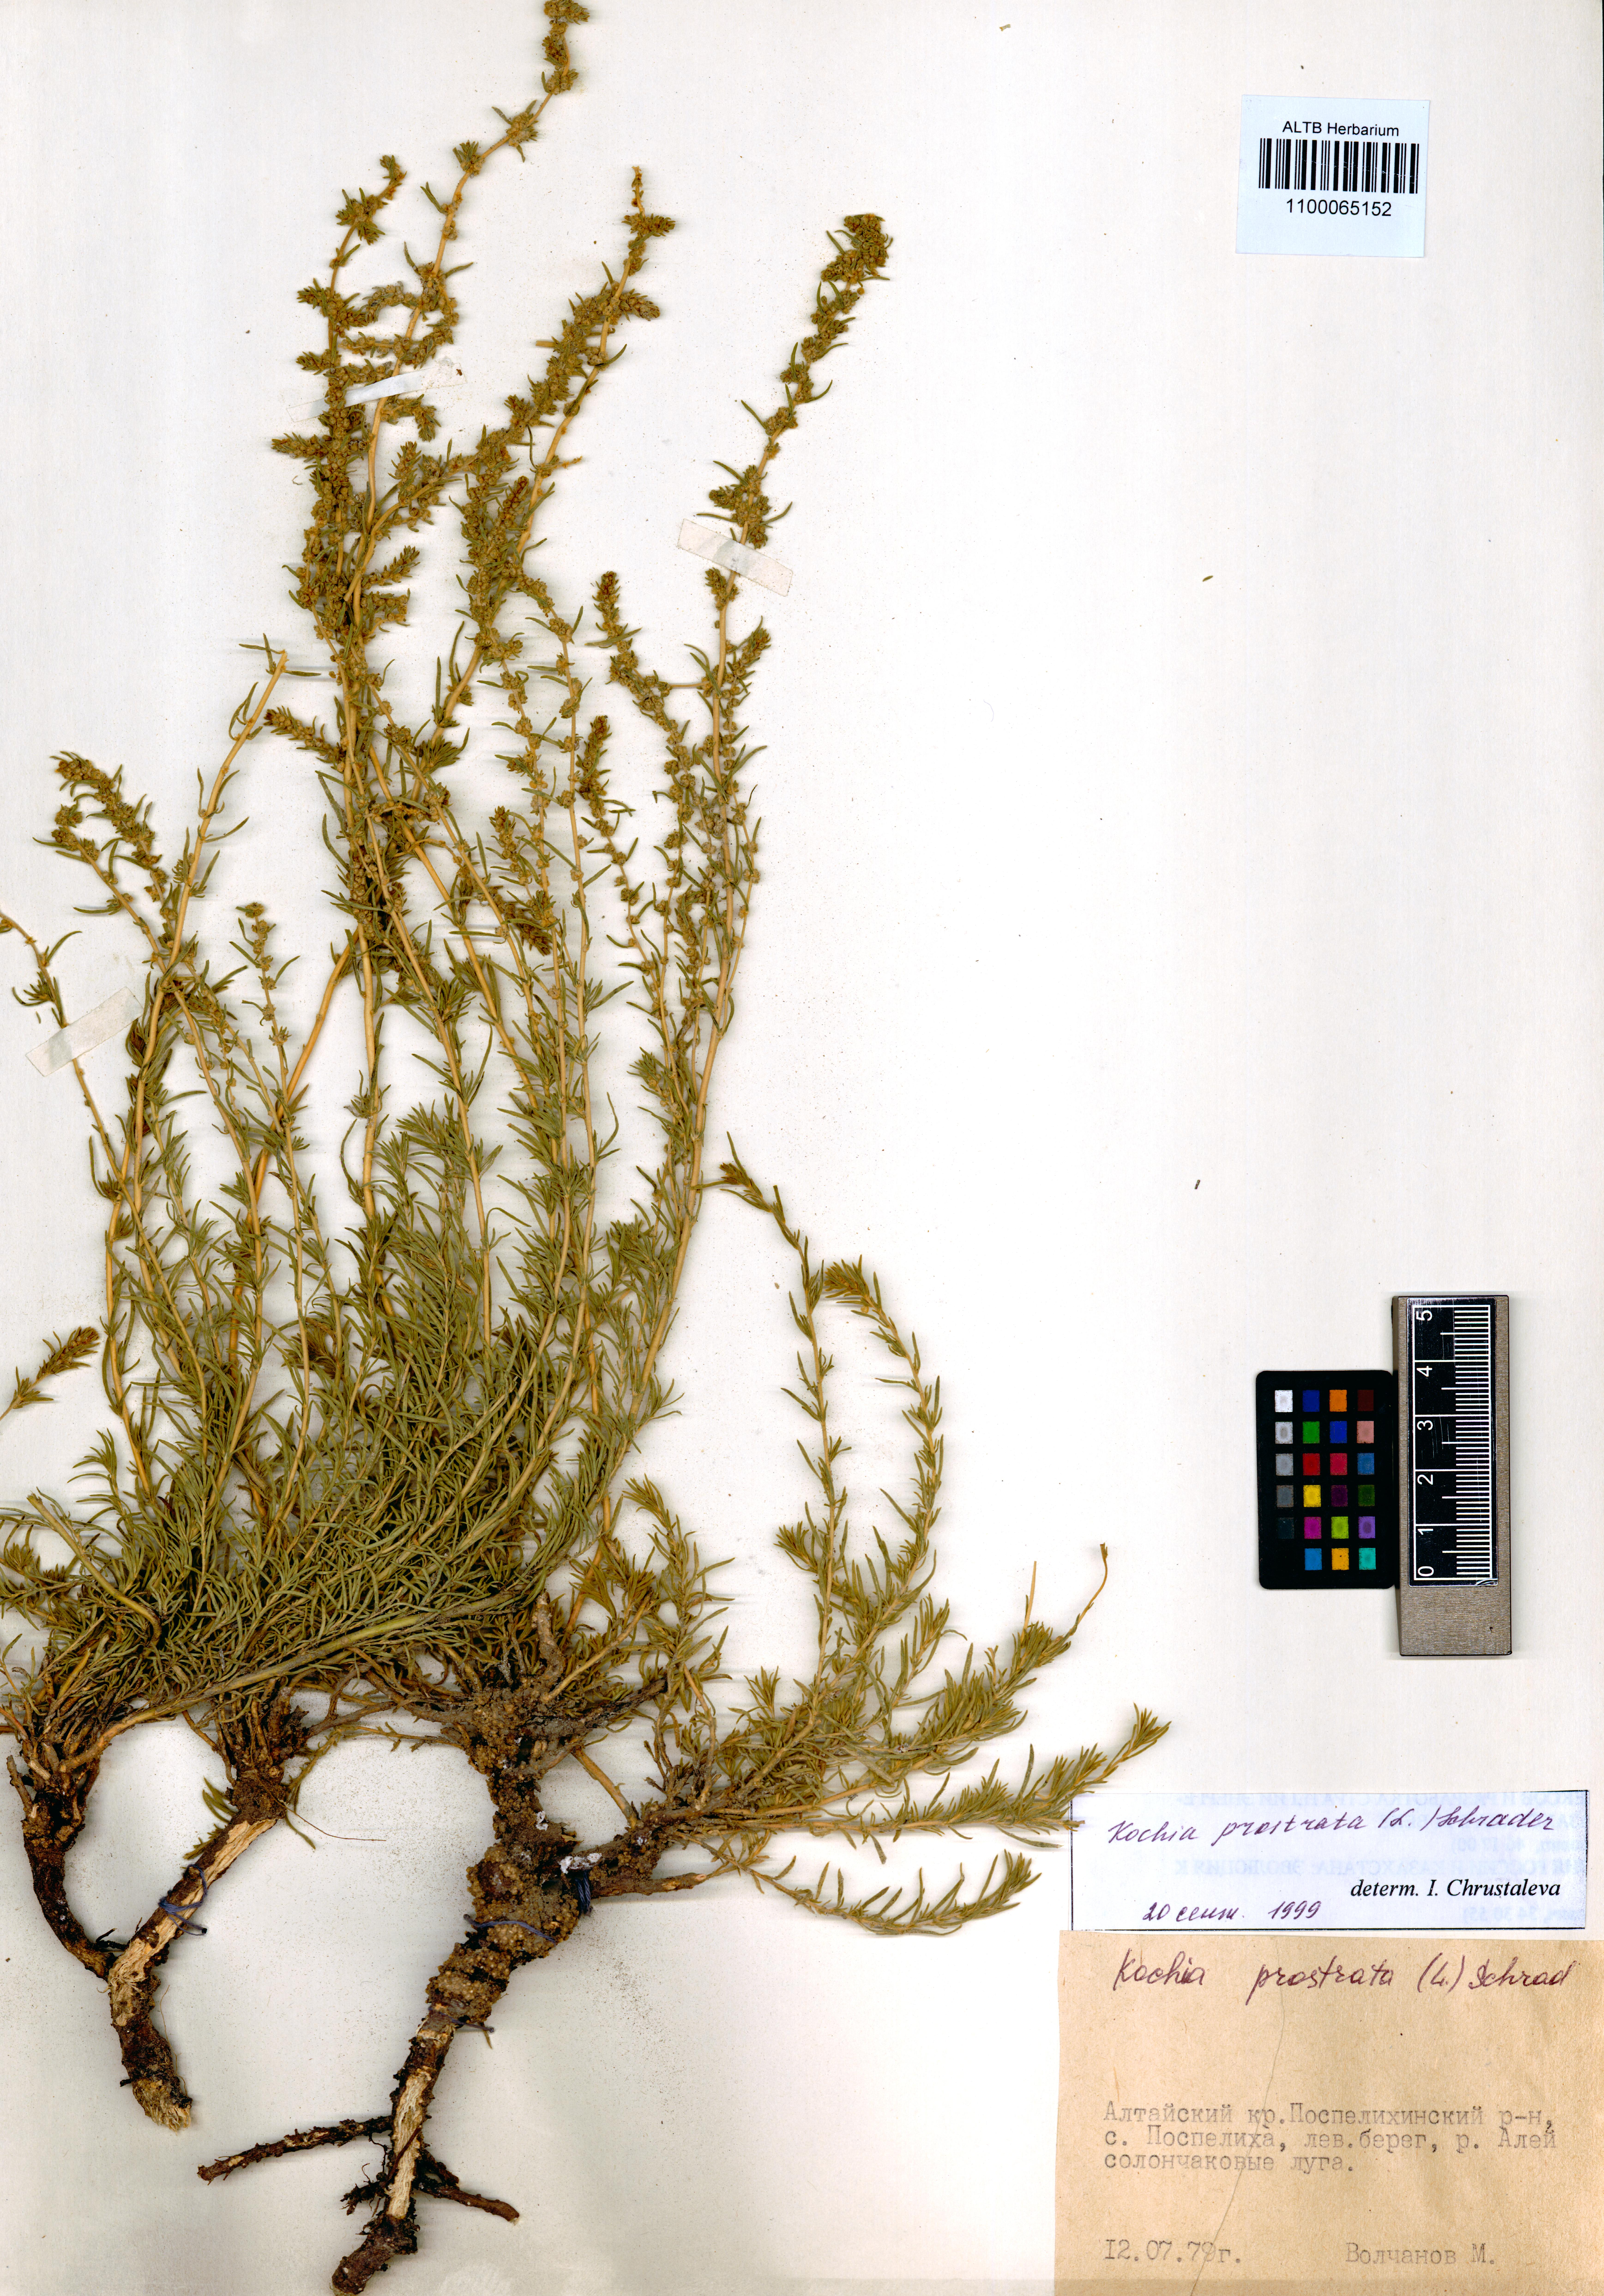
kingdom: Plantae
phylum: Tracheophyta
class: Magnoliopsida
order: Caryophyllales
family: Amaranthaceae
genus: Bassia
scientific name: Bassia prostrata
